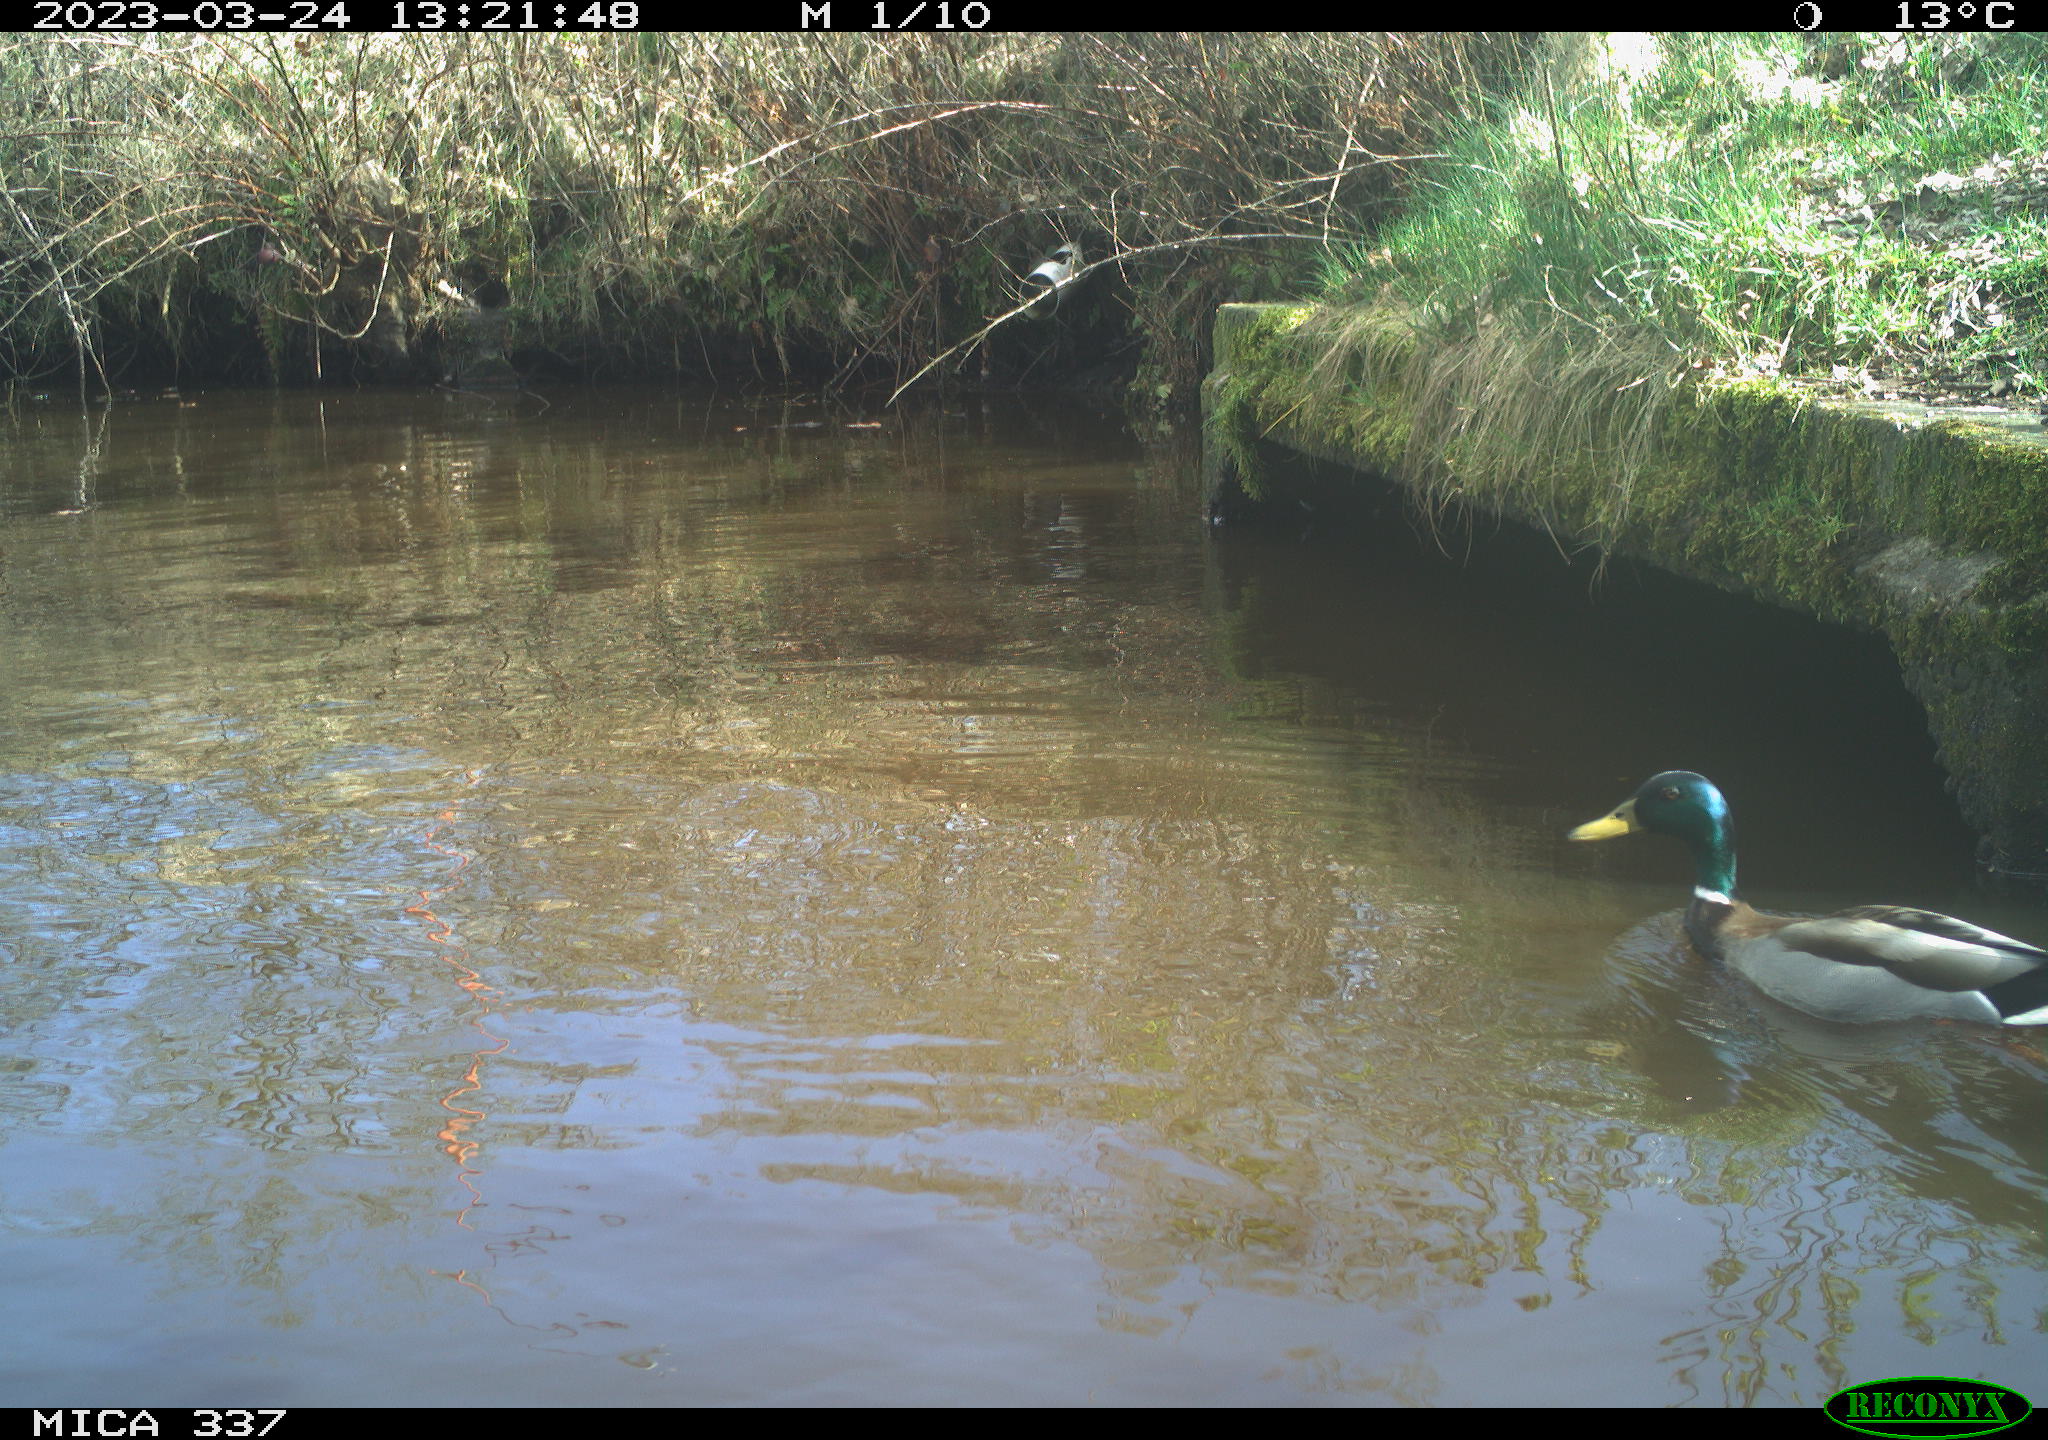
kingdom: Animalia
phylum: Chordata
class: Aves
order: Anseriformes
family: Anatidae
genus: Anas
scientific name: Anas
